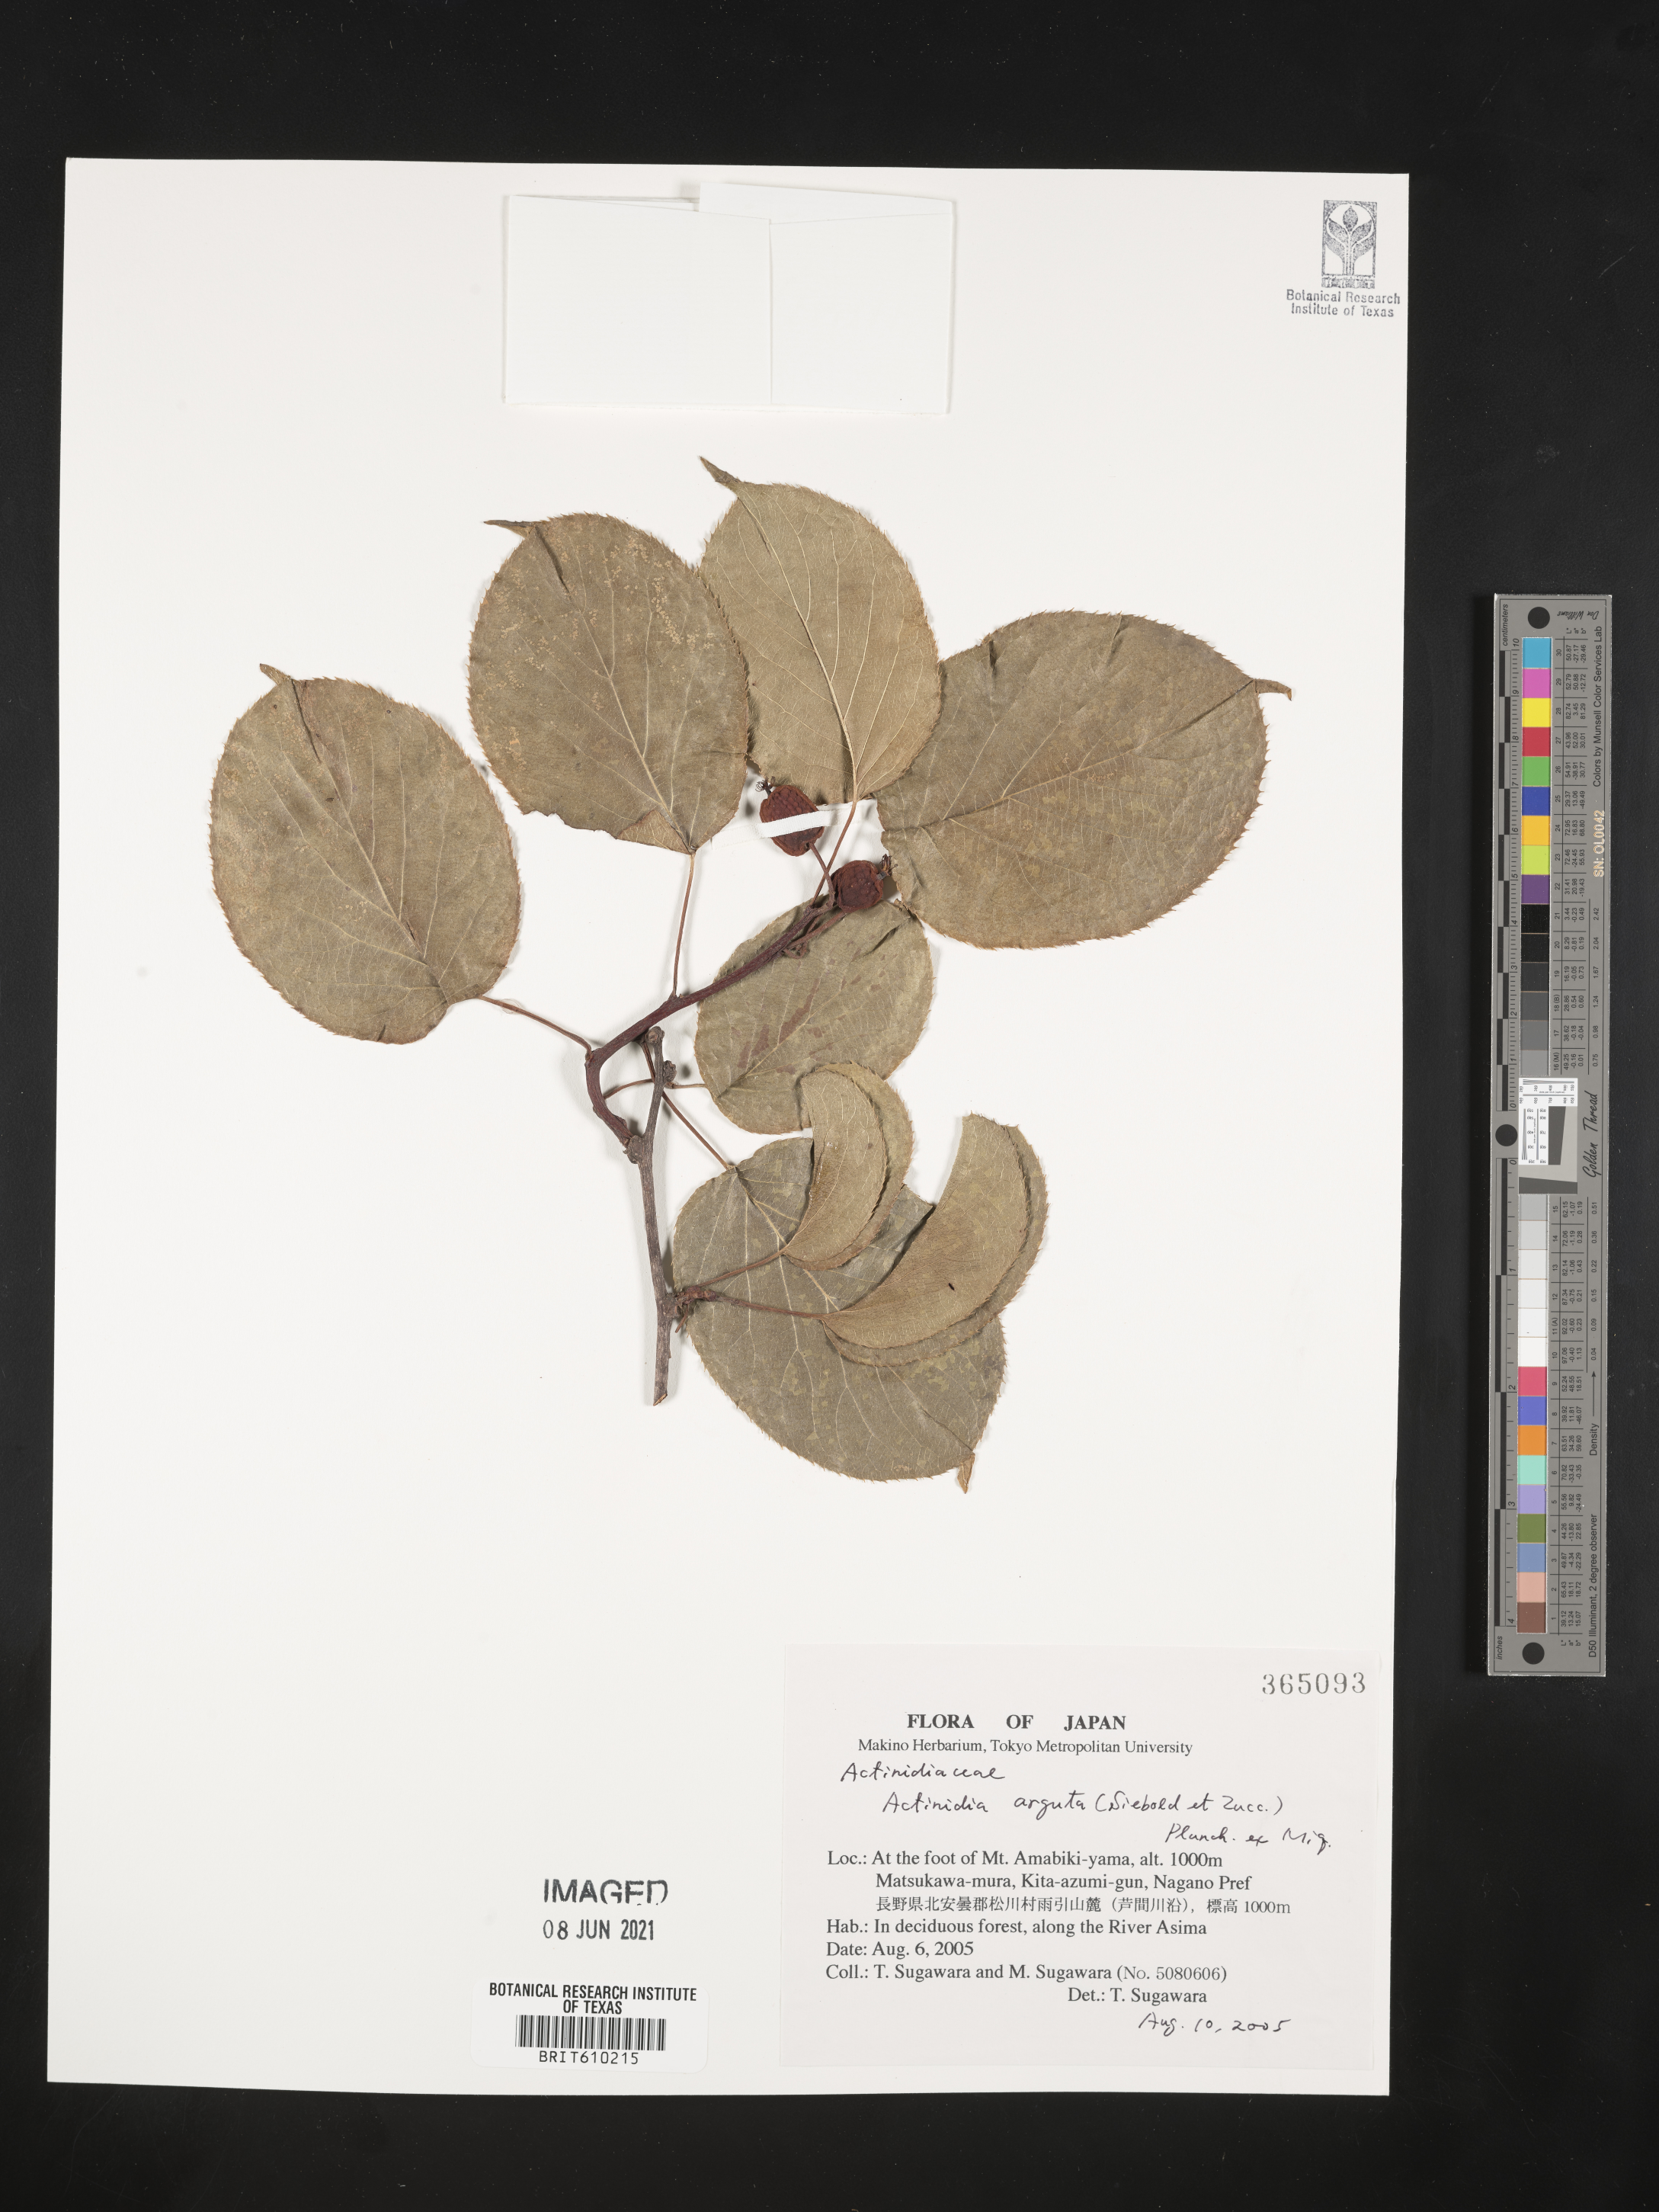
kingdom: Plantae
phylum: Tracheophyta
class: Magnoliopsida
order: Ericales
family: Actinidiaceae
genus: Actinidia
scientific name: Actinidia arguta
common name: Tara vine
